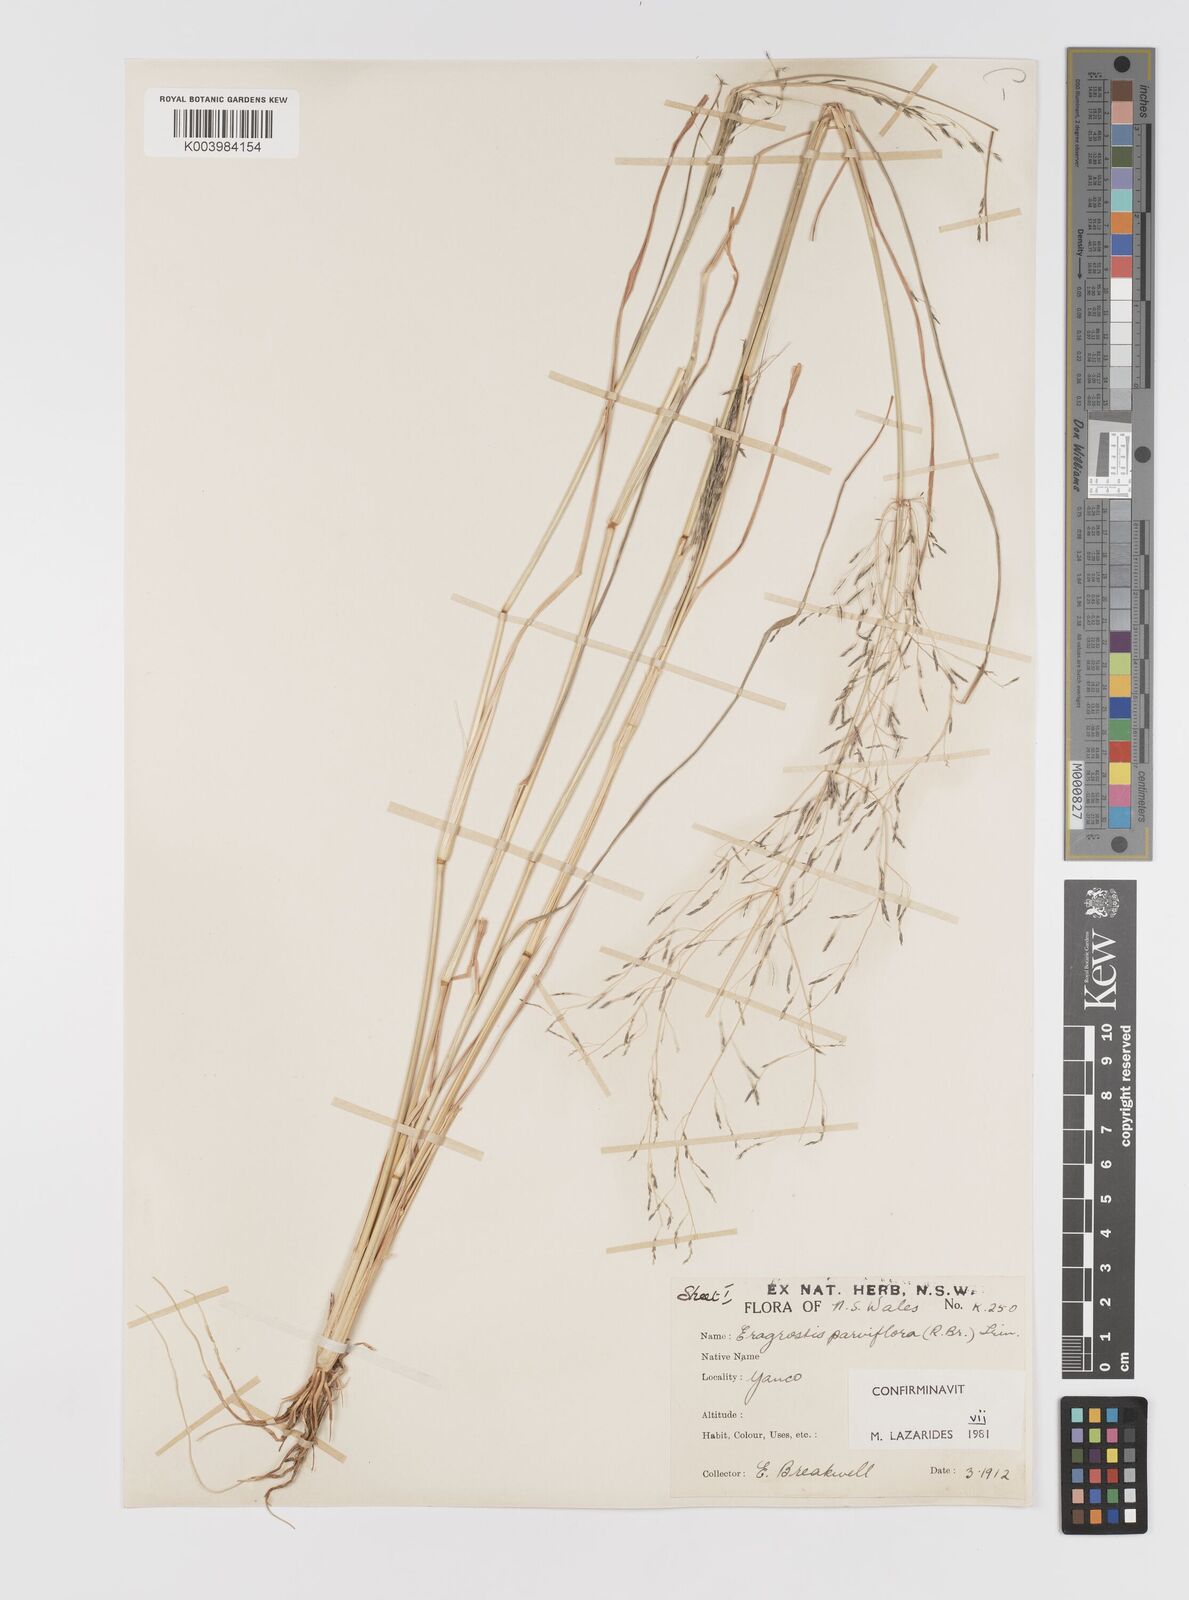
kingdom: Plantae
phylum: Tracheophyta
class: Liliopsida
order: Poales
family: Poaceae
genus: Eragrostis
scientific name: Eragrostis parviflora
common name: Weeping love-grass
